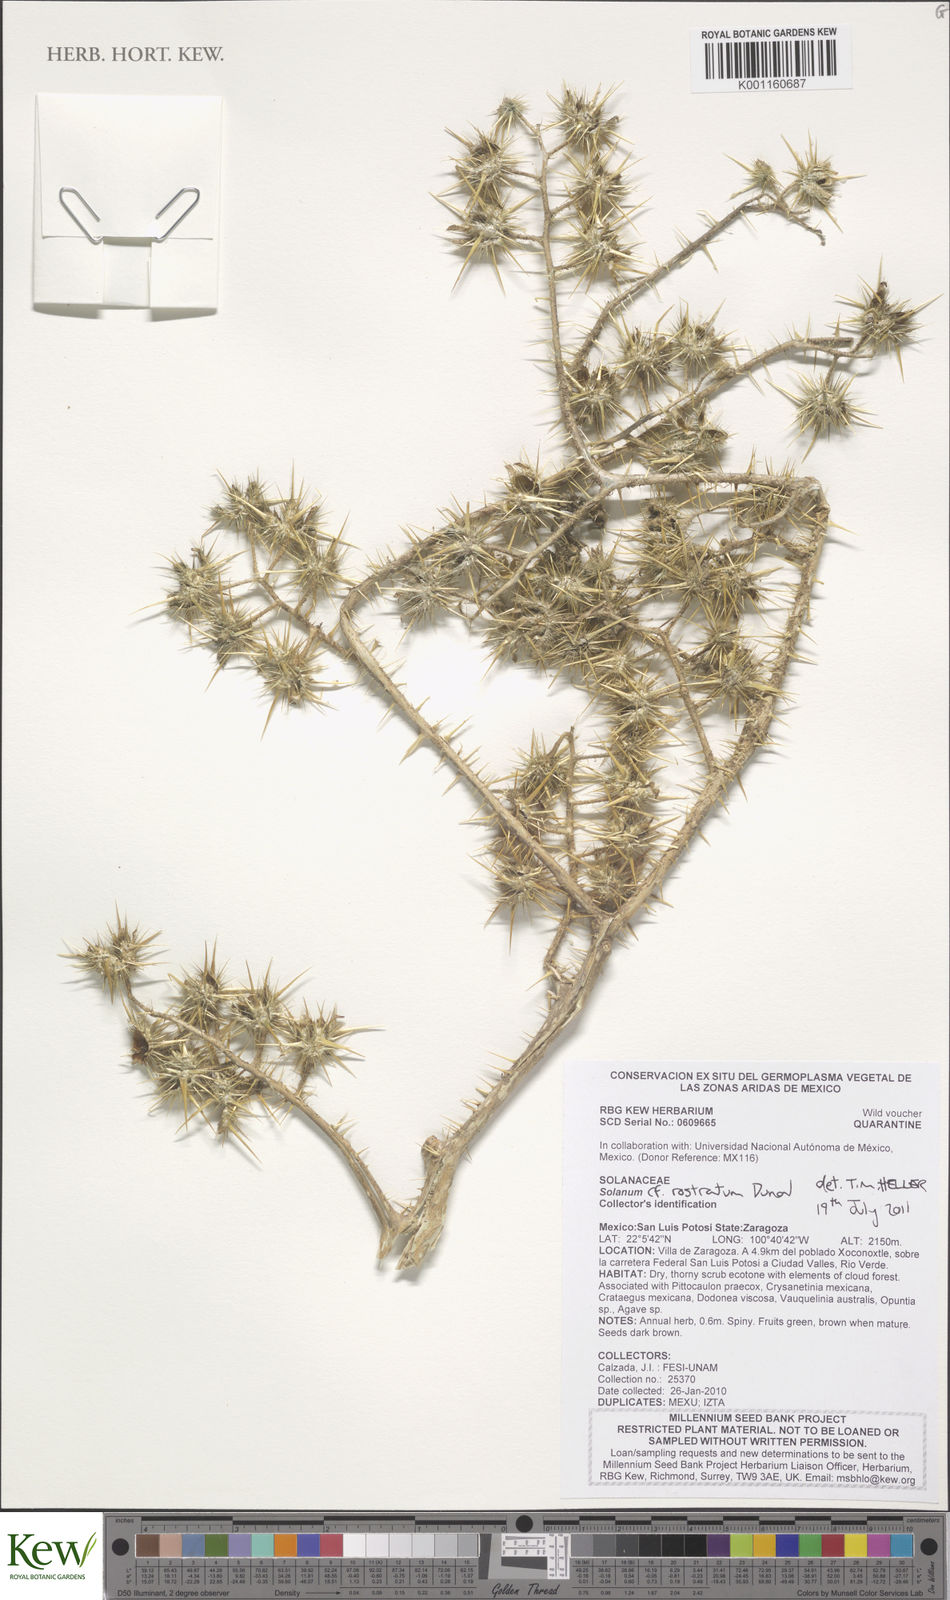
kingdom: Plantae
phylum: Tracheophyta
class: Magnoliopsida
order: Solanales
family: Solanaceae
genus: Solanum
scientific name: Solanum angustifolium
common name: Buffalobur nightshade
